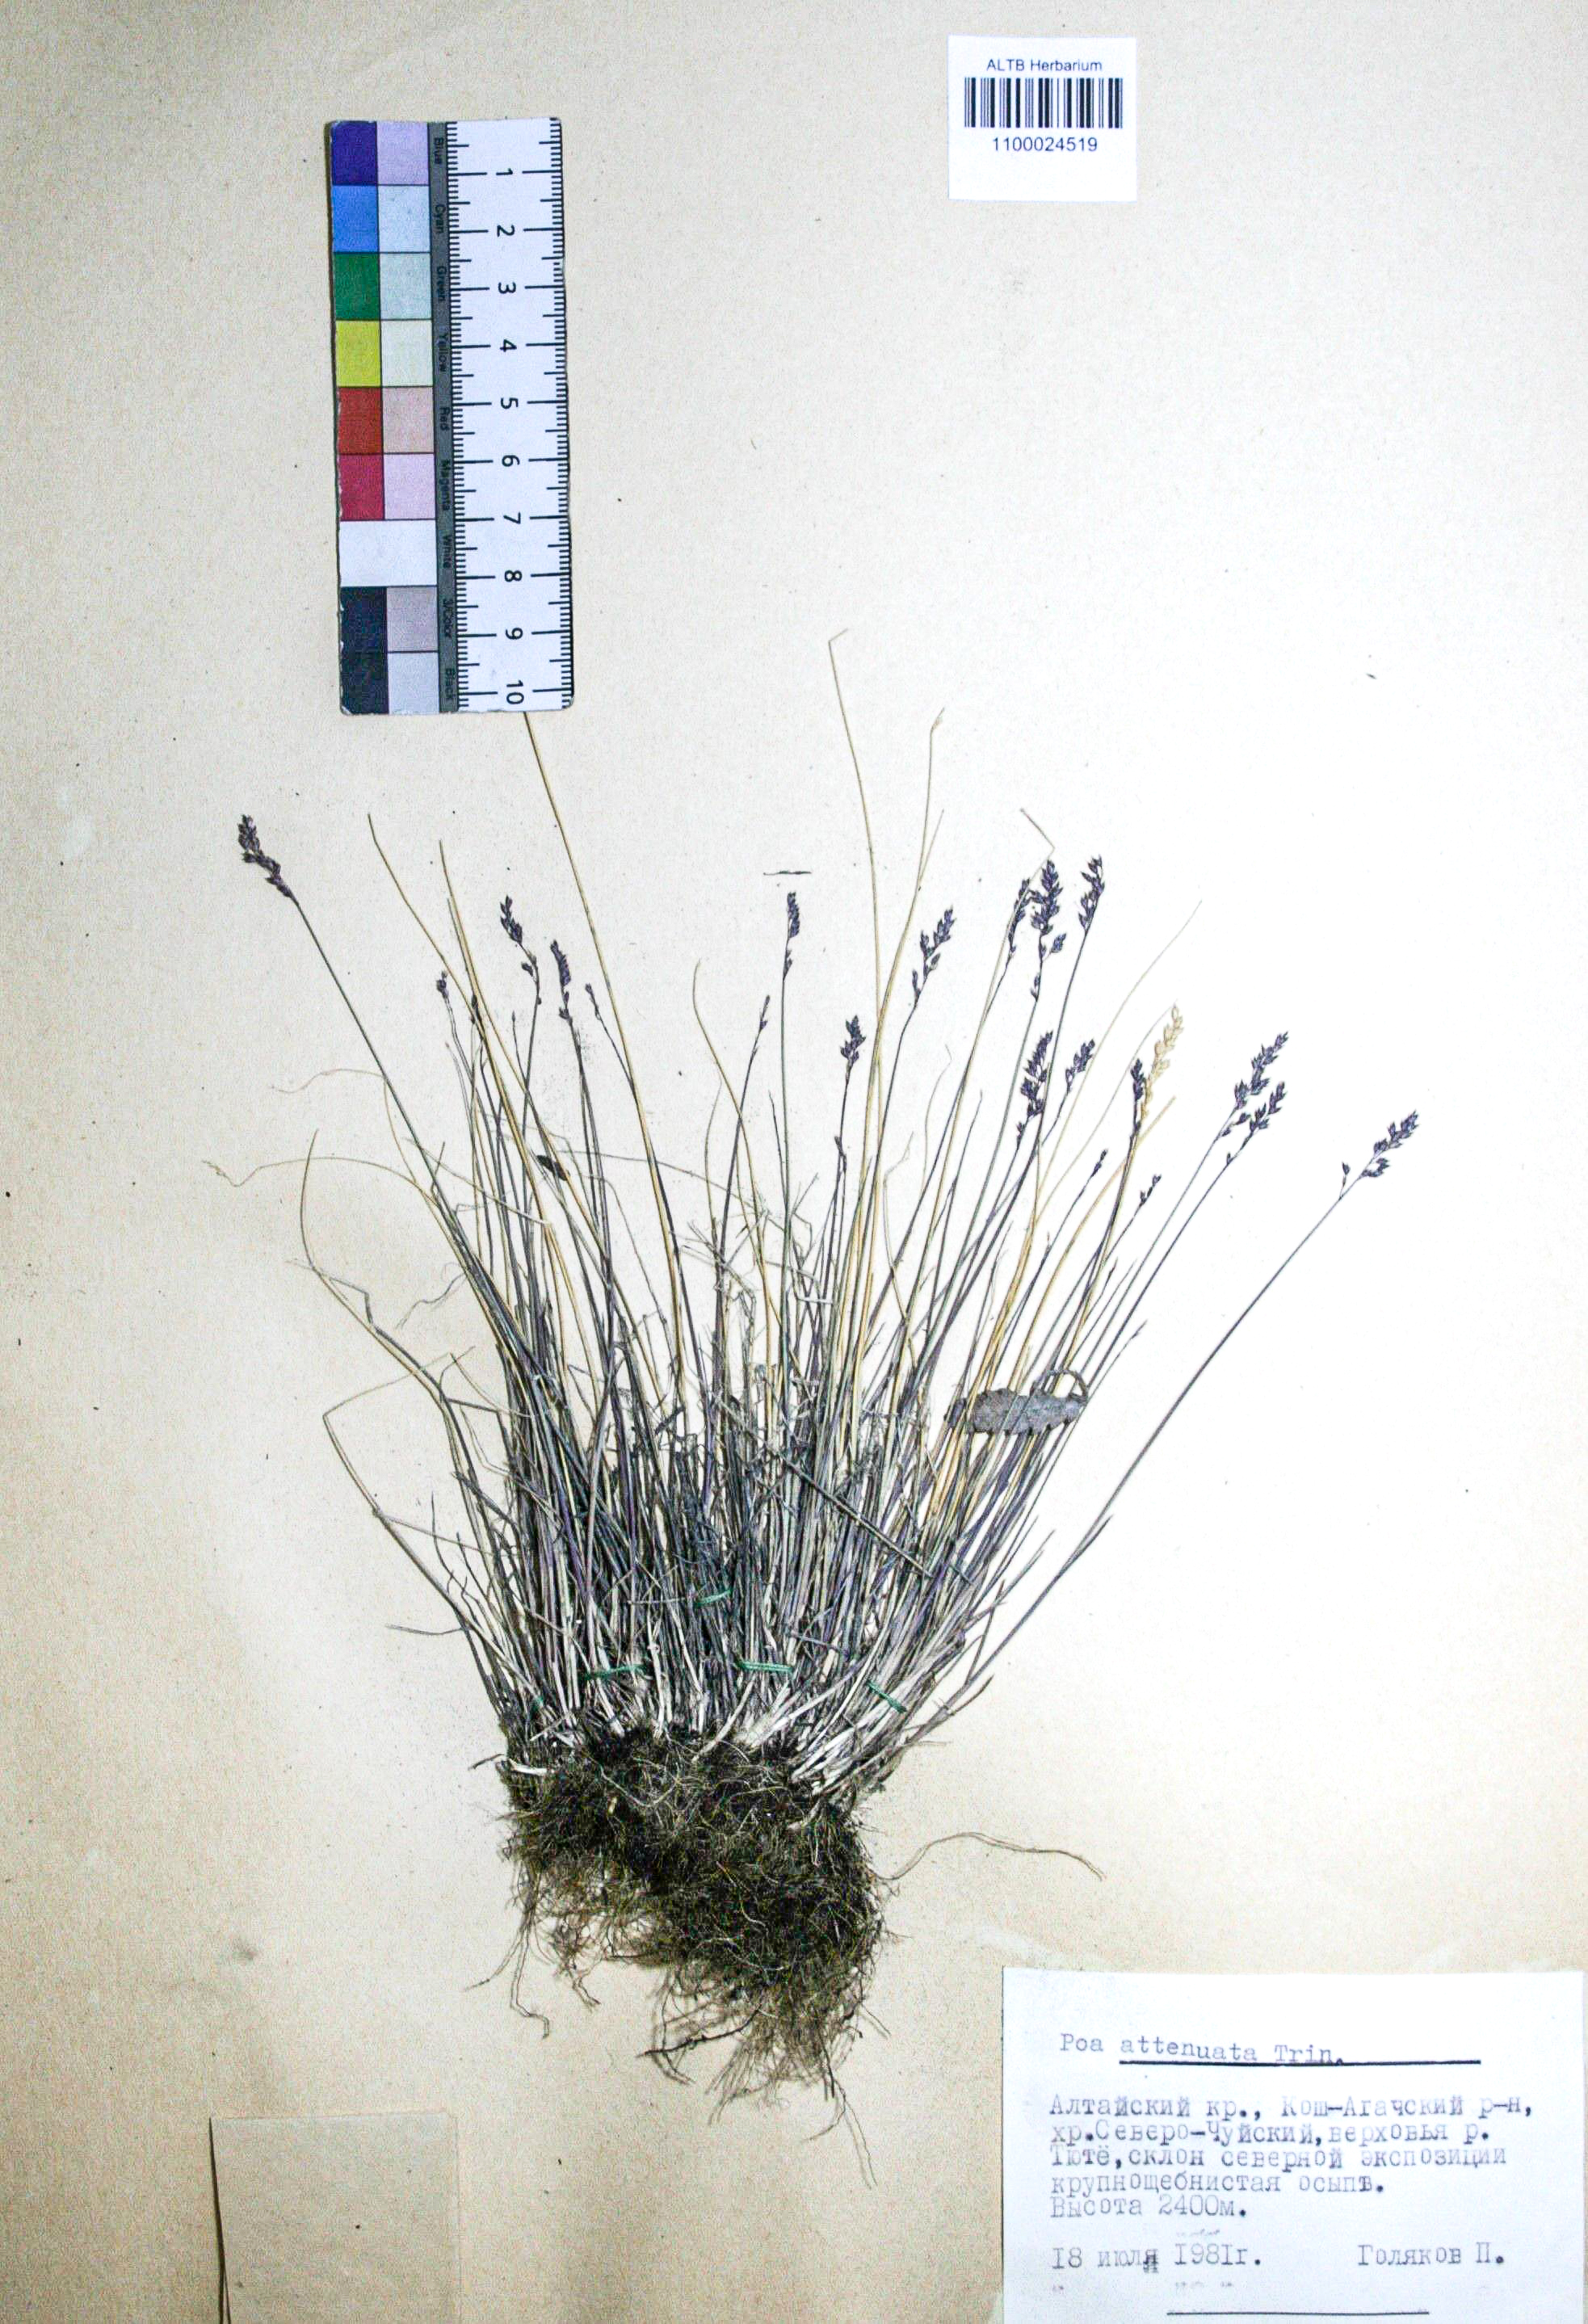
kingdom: Plantae
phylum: Tracheophyta
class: Liliopsida
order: Poales
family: Poaceae
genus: Poa
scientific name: Poa attenuata
